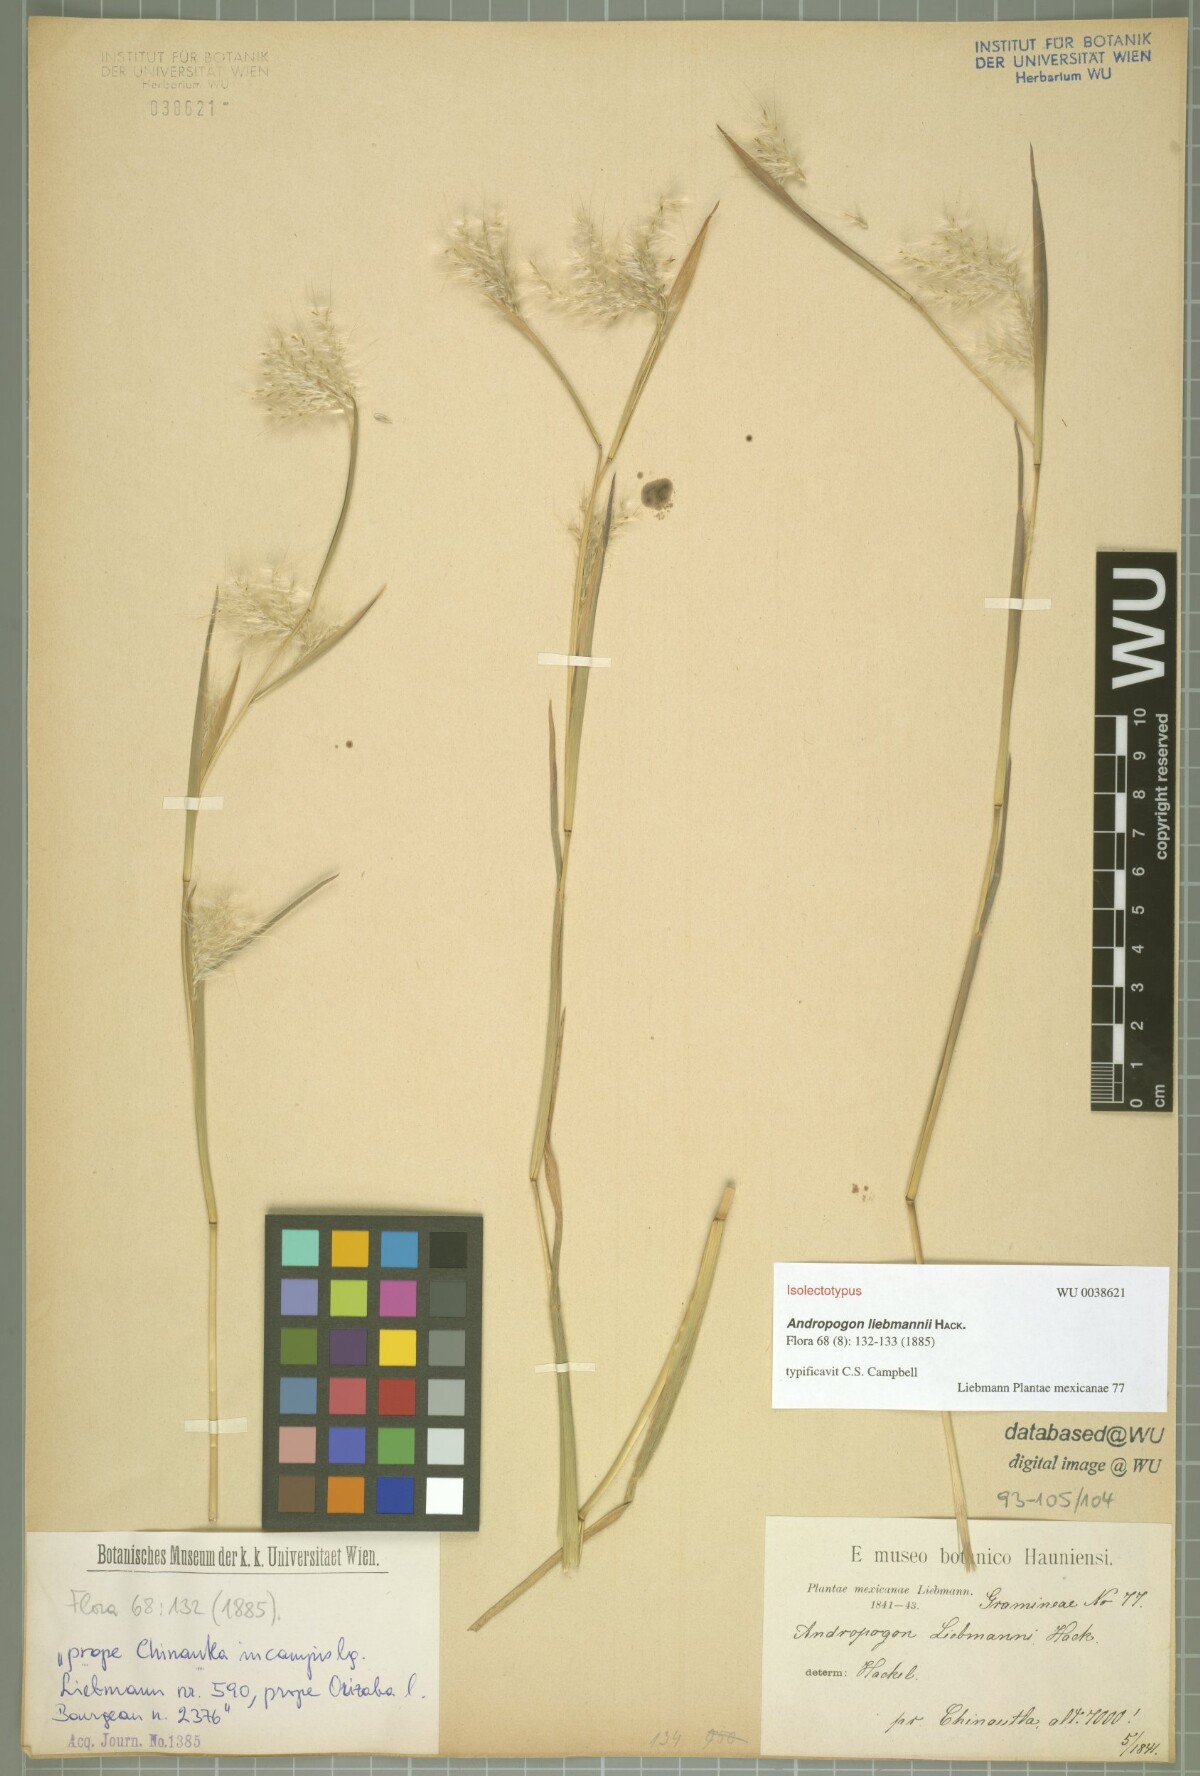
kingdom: Plantae
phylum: Tracheophyta
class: Liliopsida
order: Poales
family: Poaceae
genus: Andropogon
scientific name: Andropogon liebmannii
